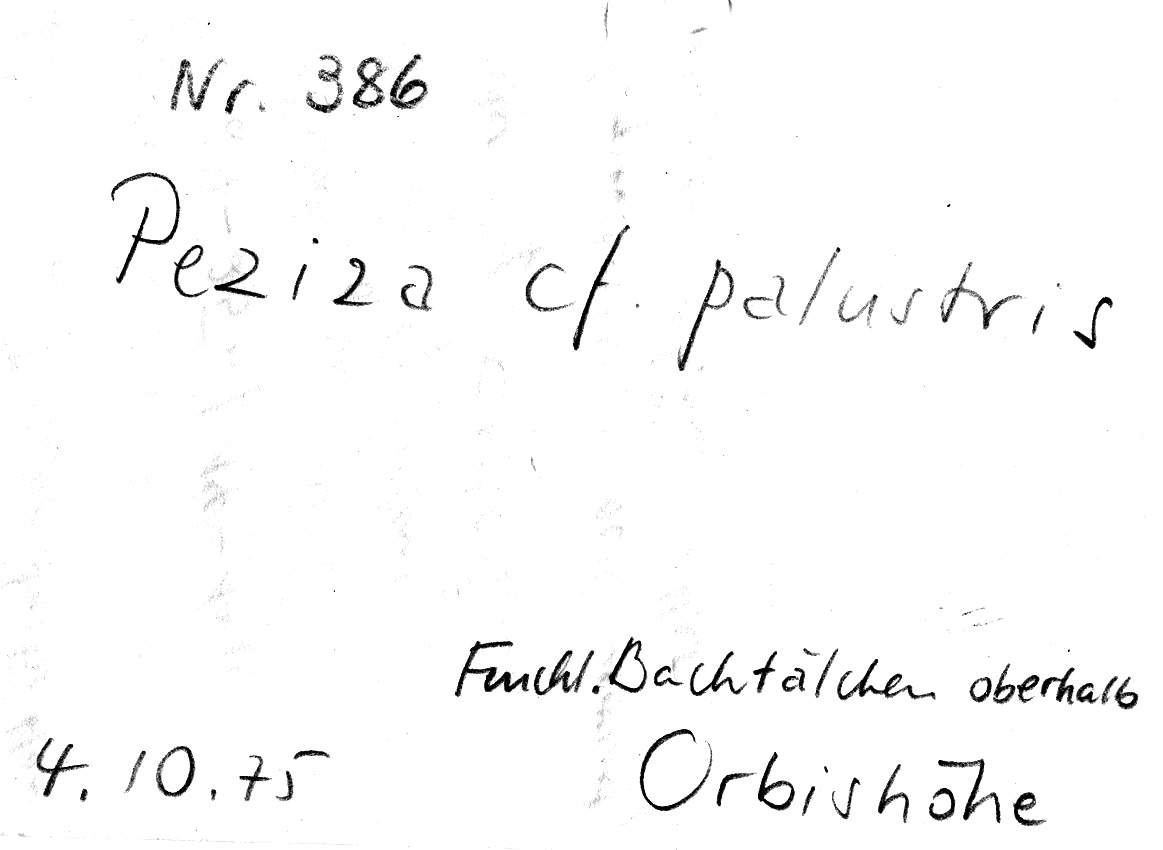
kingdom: Fungi
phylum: Ascomycota
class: Pezizomycetes
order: Pezizales
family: Pezizaceae
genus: Peziza
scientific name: Peziza palustris
